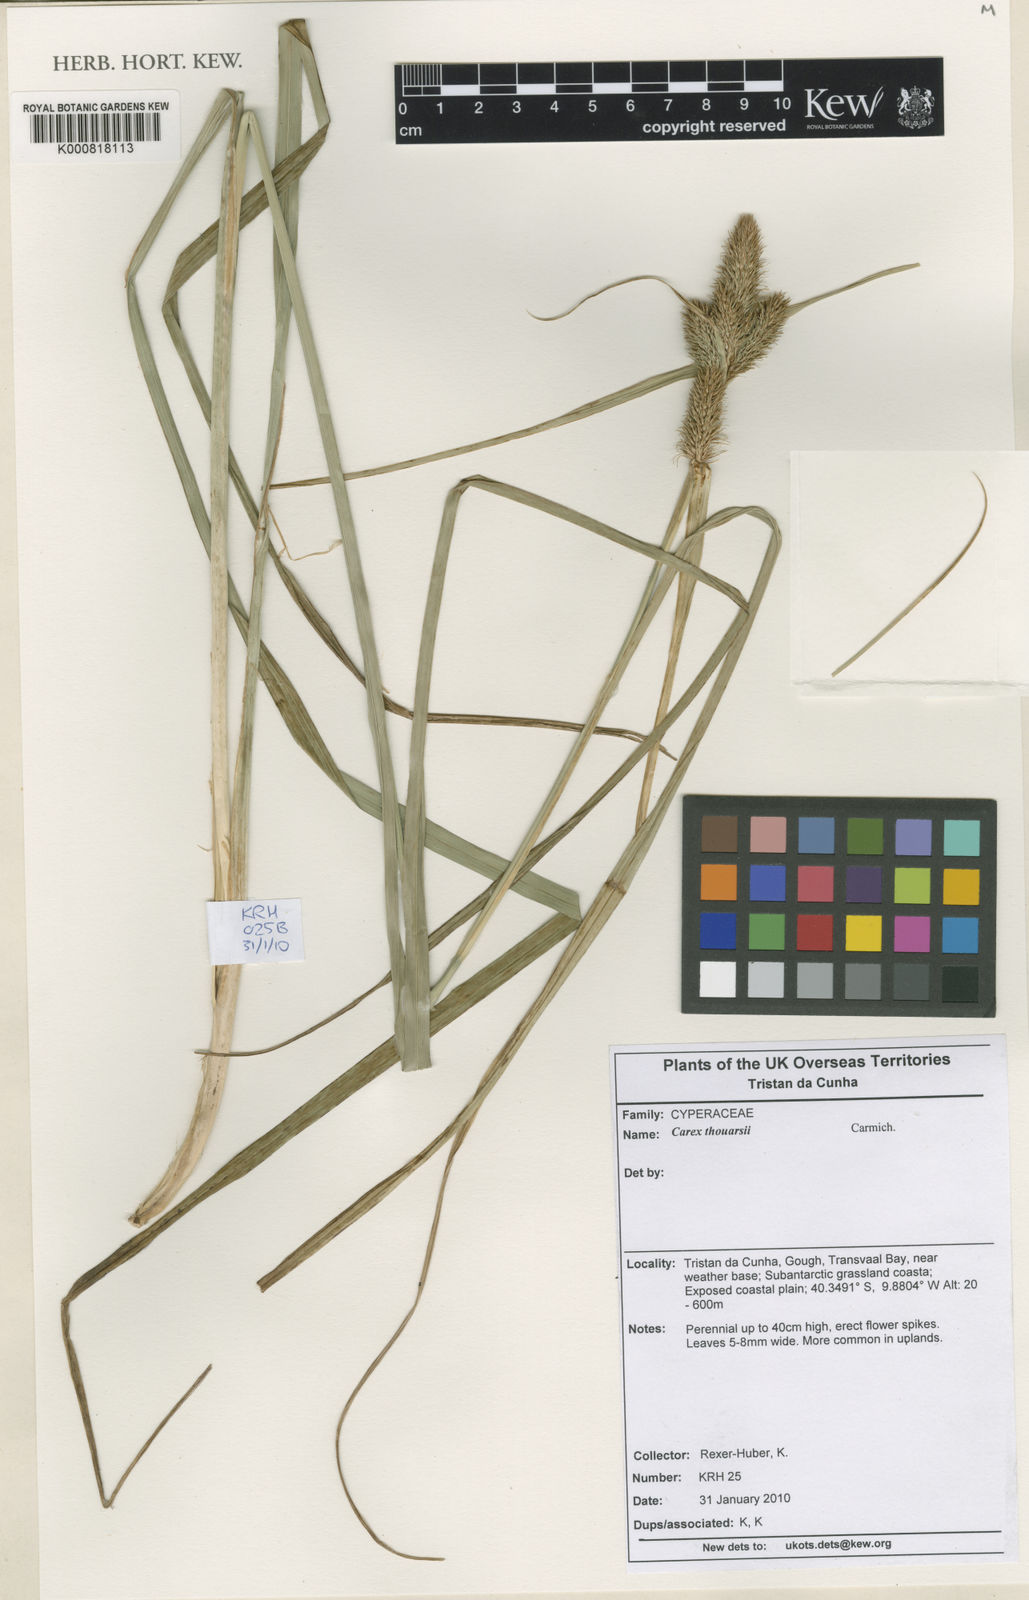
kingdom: Plantae
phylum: Tracheophyta
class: Liliopsida
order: Poales
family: Cyperaceae
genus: Carex
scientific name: Carex thouarsii
